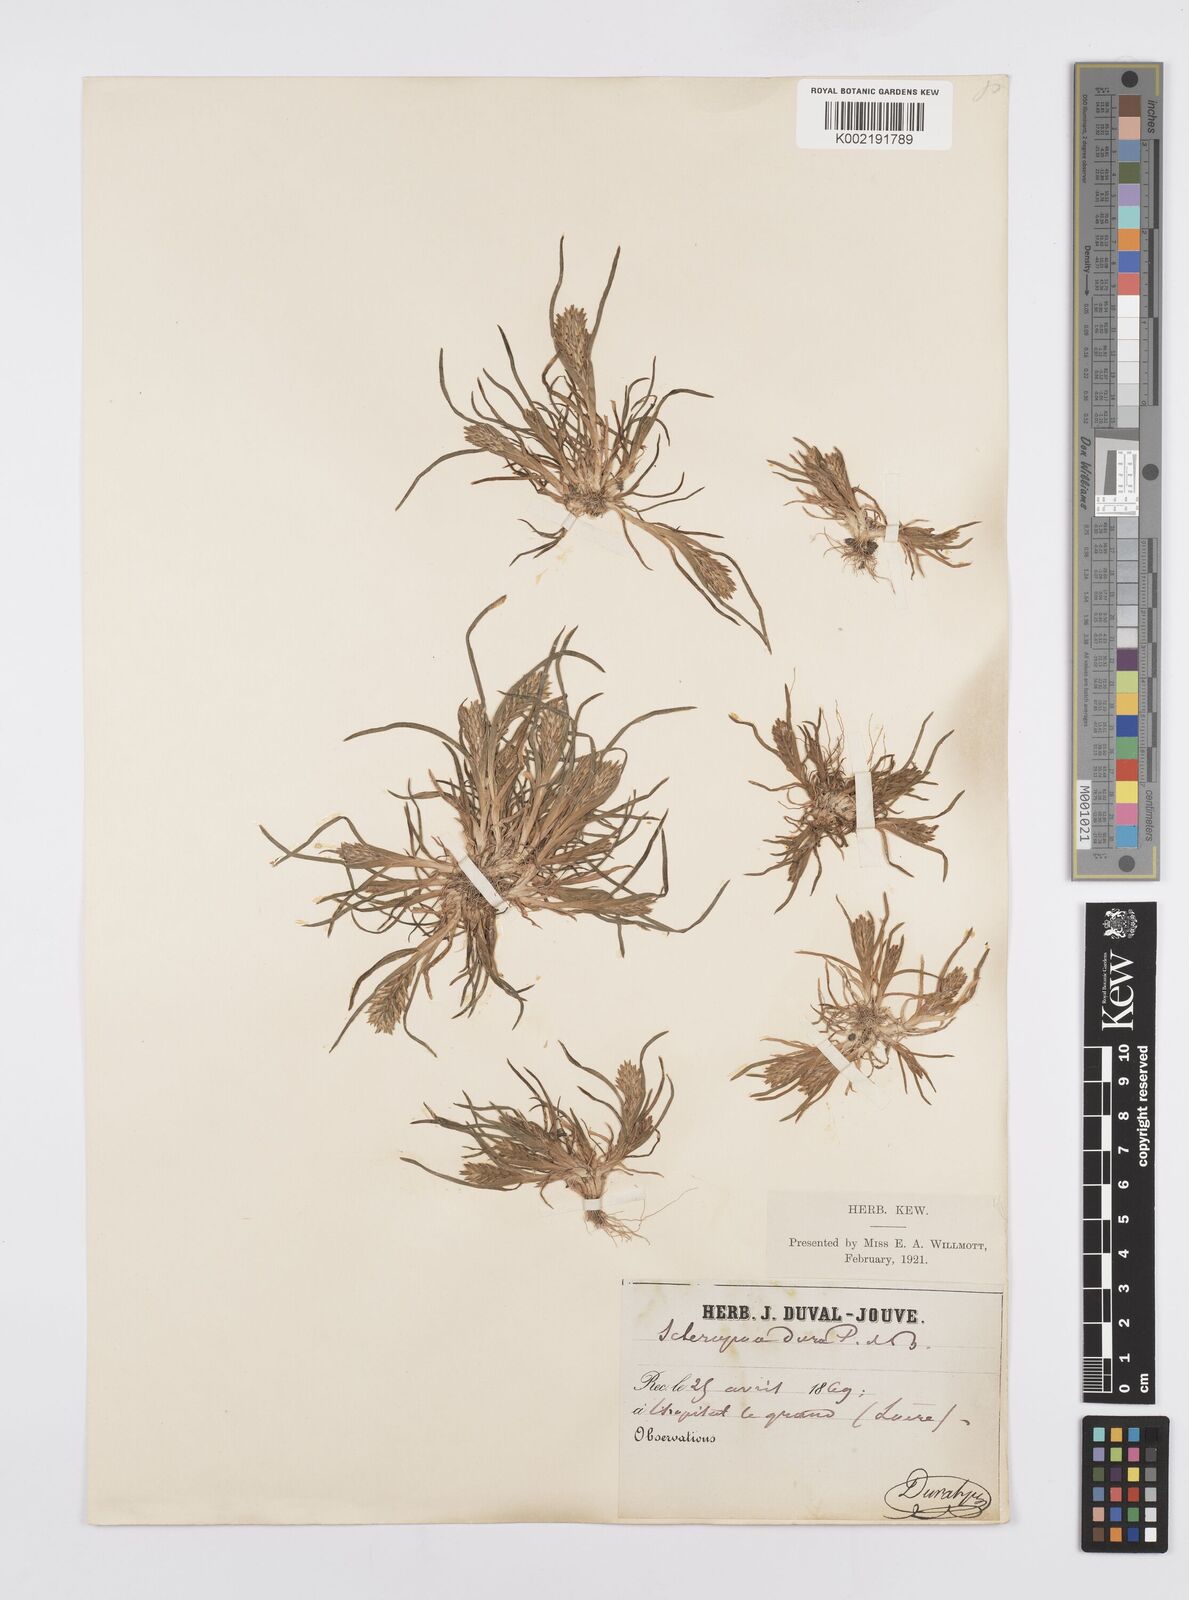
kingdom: Plantae
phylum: Tracheophyta
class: Liliopsida
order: Poales
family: Poaceae
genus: Sclerochloa
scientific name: Sclerochloa dura
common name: Common hardgrass
